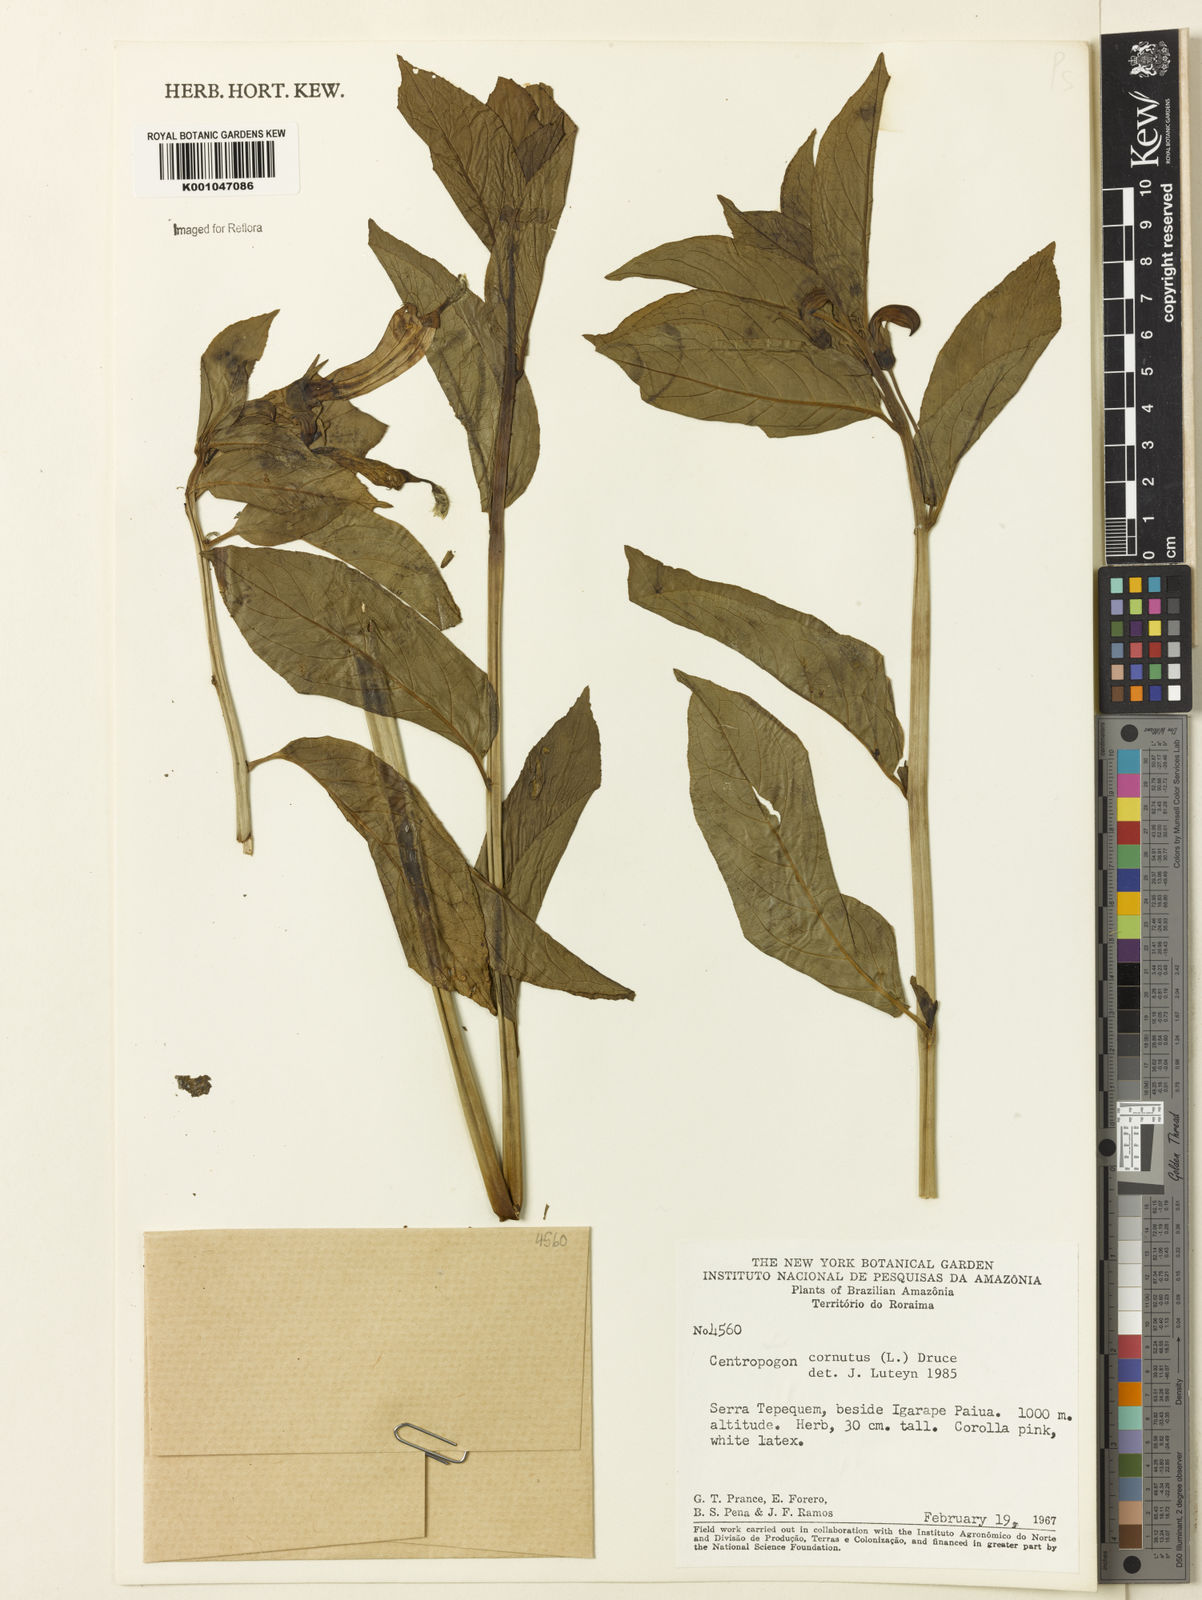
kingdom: Plantae
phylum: Tracheophyta
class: Magnoliopsida
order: Asterales
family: Campanulaceae
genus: Centropogon
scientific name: Centropogon cornutus
